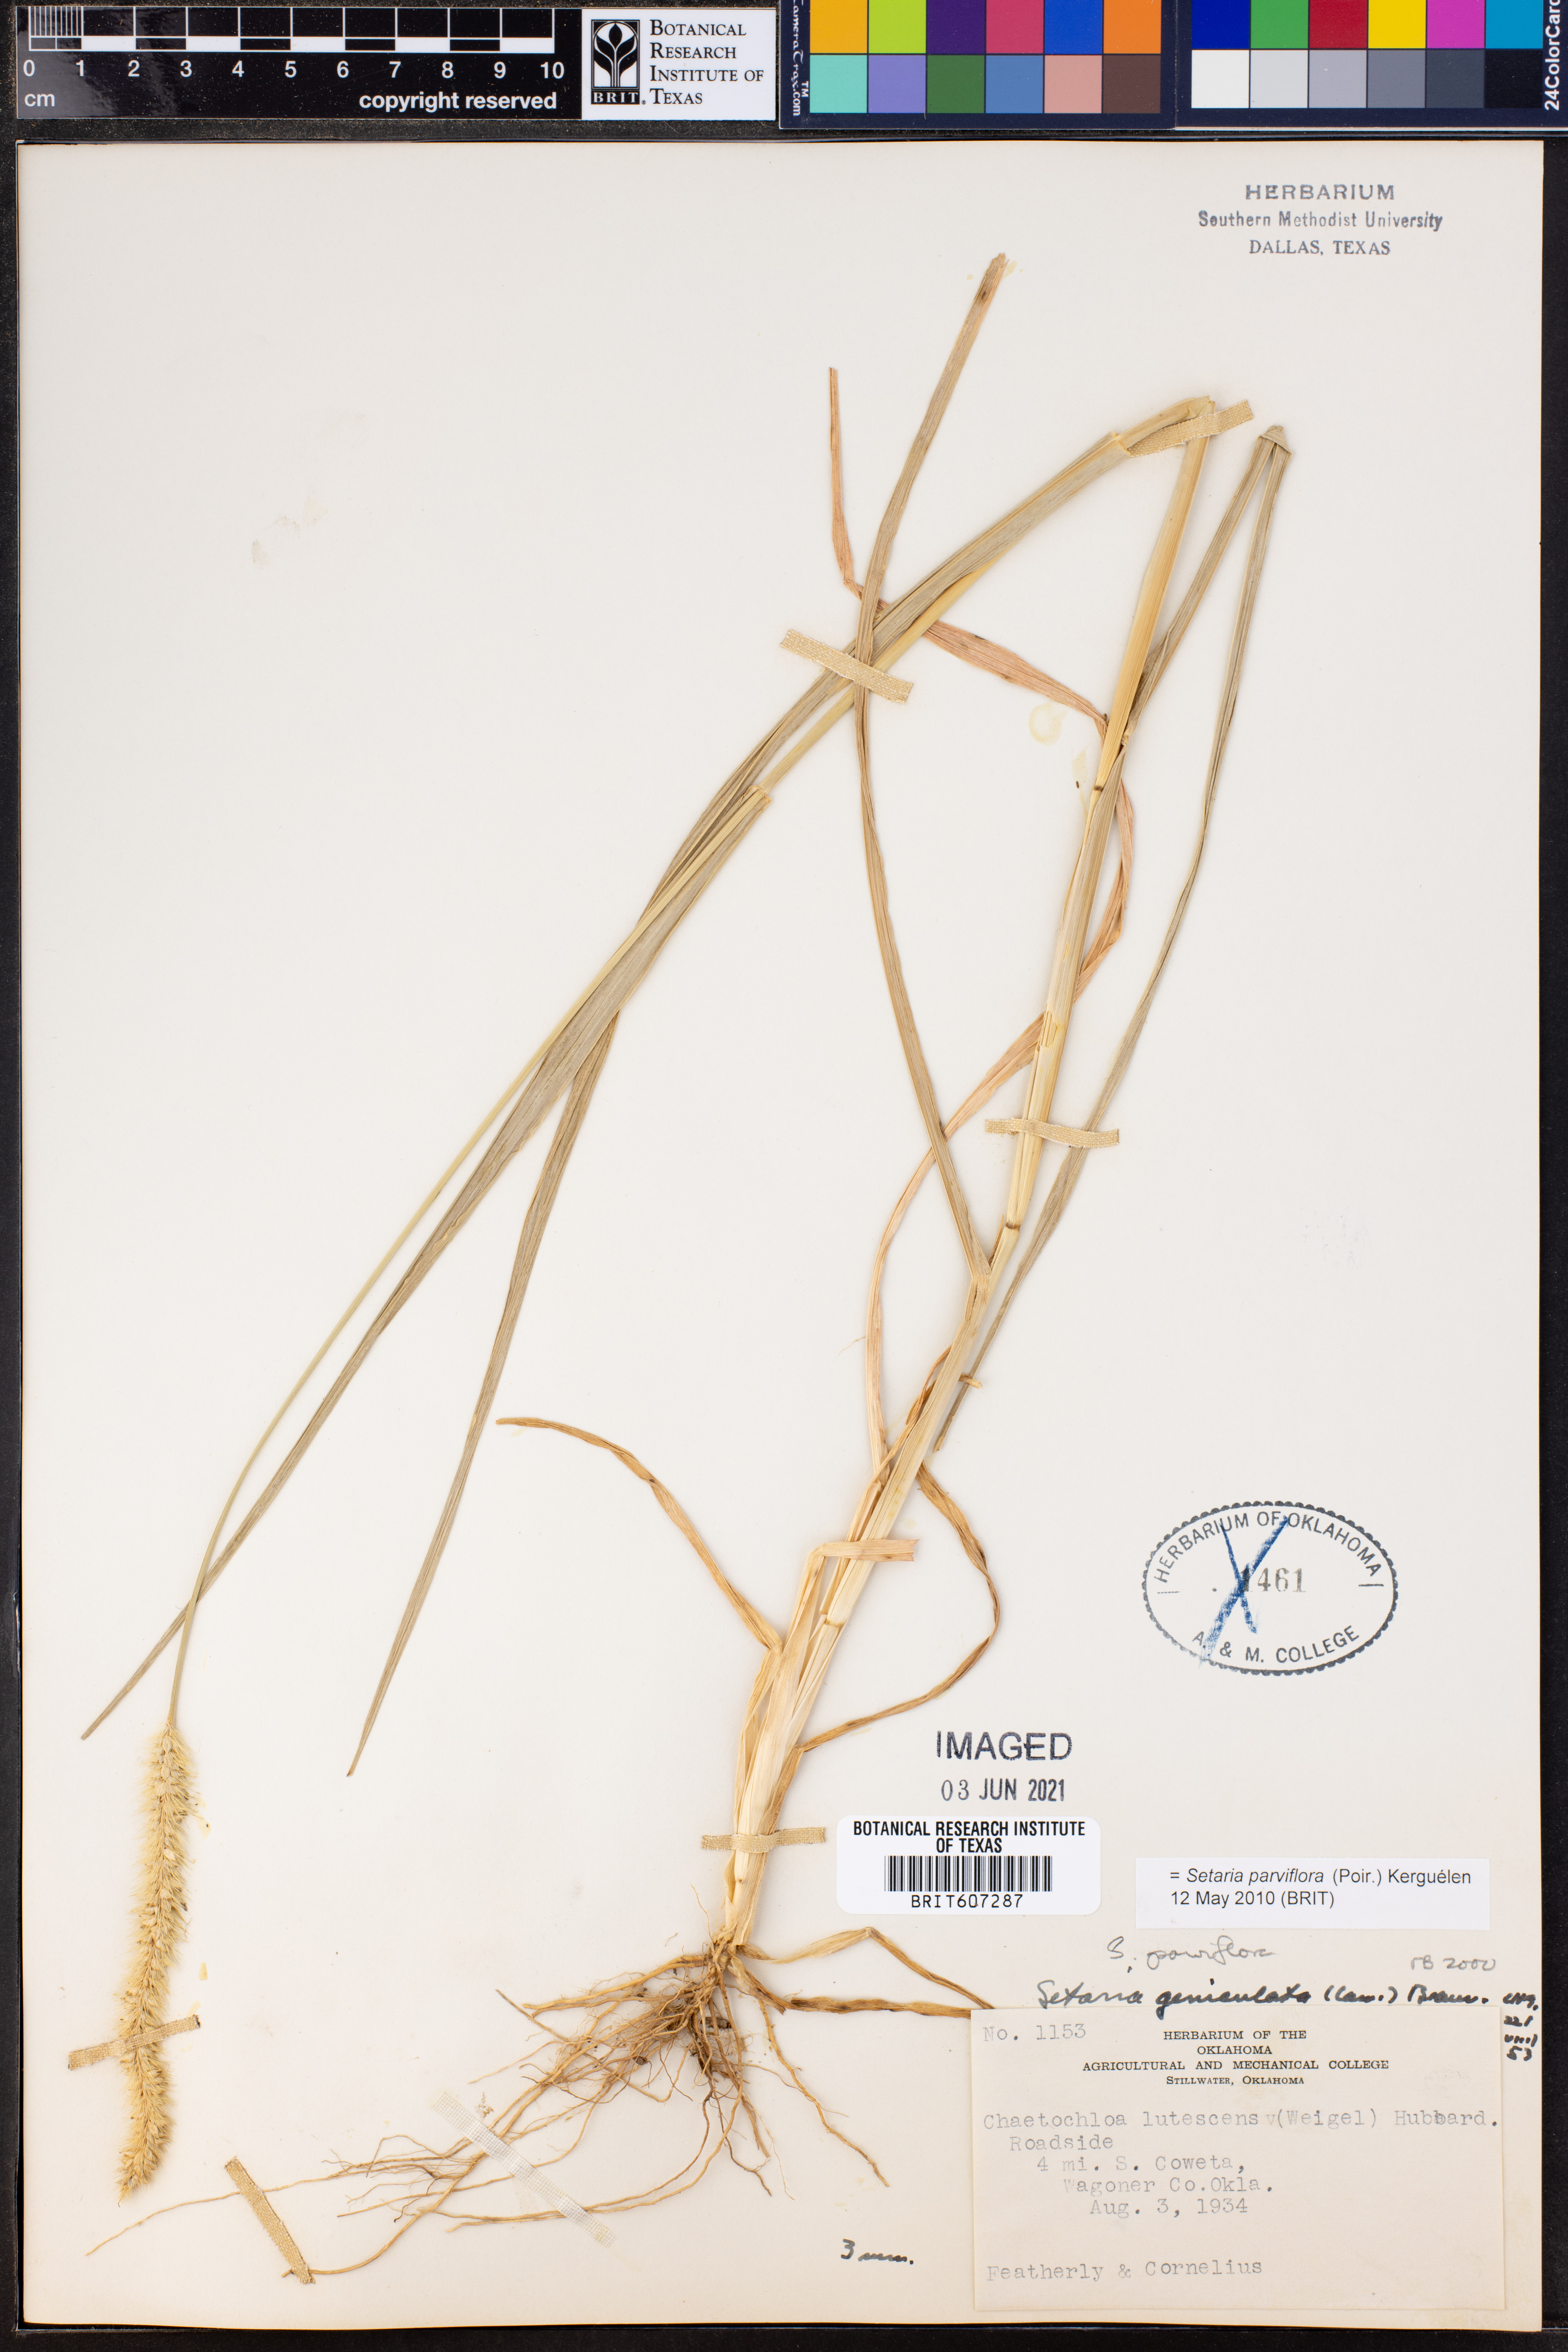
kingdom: Plantae
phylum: Tracheophyta
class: Liliopsida
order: Poales
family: Poaceae
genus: Setaria
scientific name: Setaria parviflora
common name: Knotroot bristle-grass
